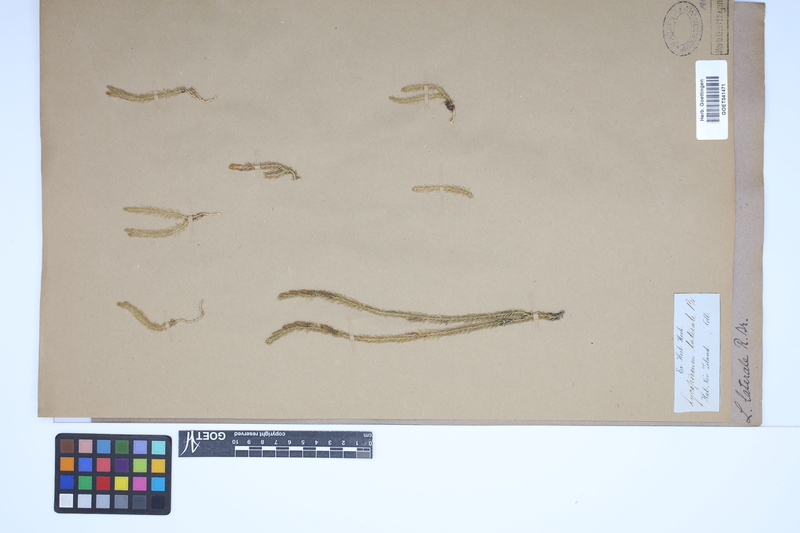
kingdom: Plantae
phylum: Tracheophyta
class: Lycopodiopsida
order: Lycopodiales
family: Lycopodiaceae
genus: Lateristachys
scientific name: Lateristachys lateralis
